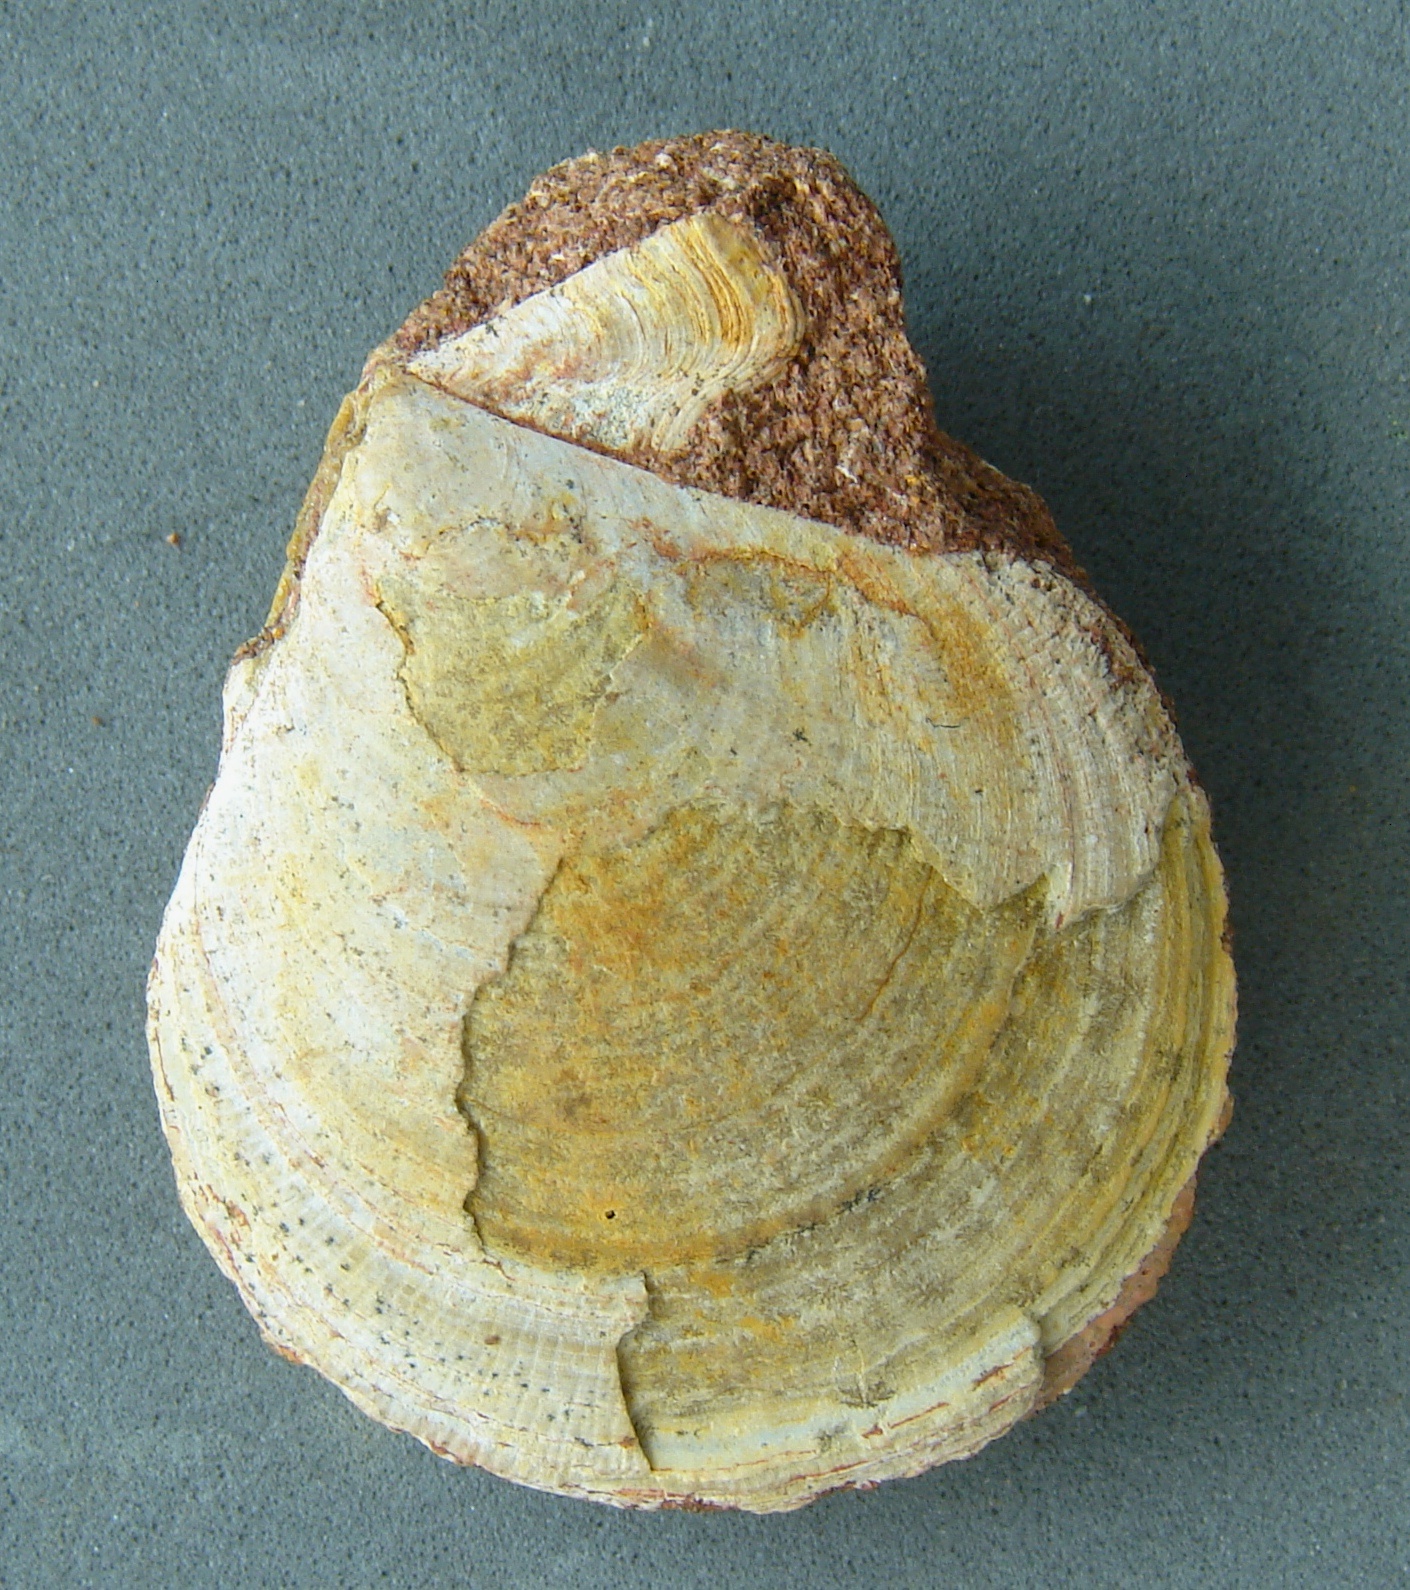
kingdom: Animalia
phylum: Mollusca
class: Bivalvia
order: Pectinida
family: Pectinidae
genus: Camptonectes
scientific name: Camptonectes auritus
